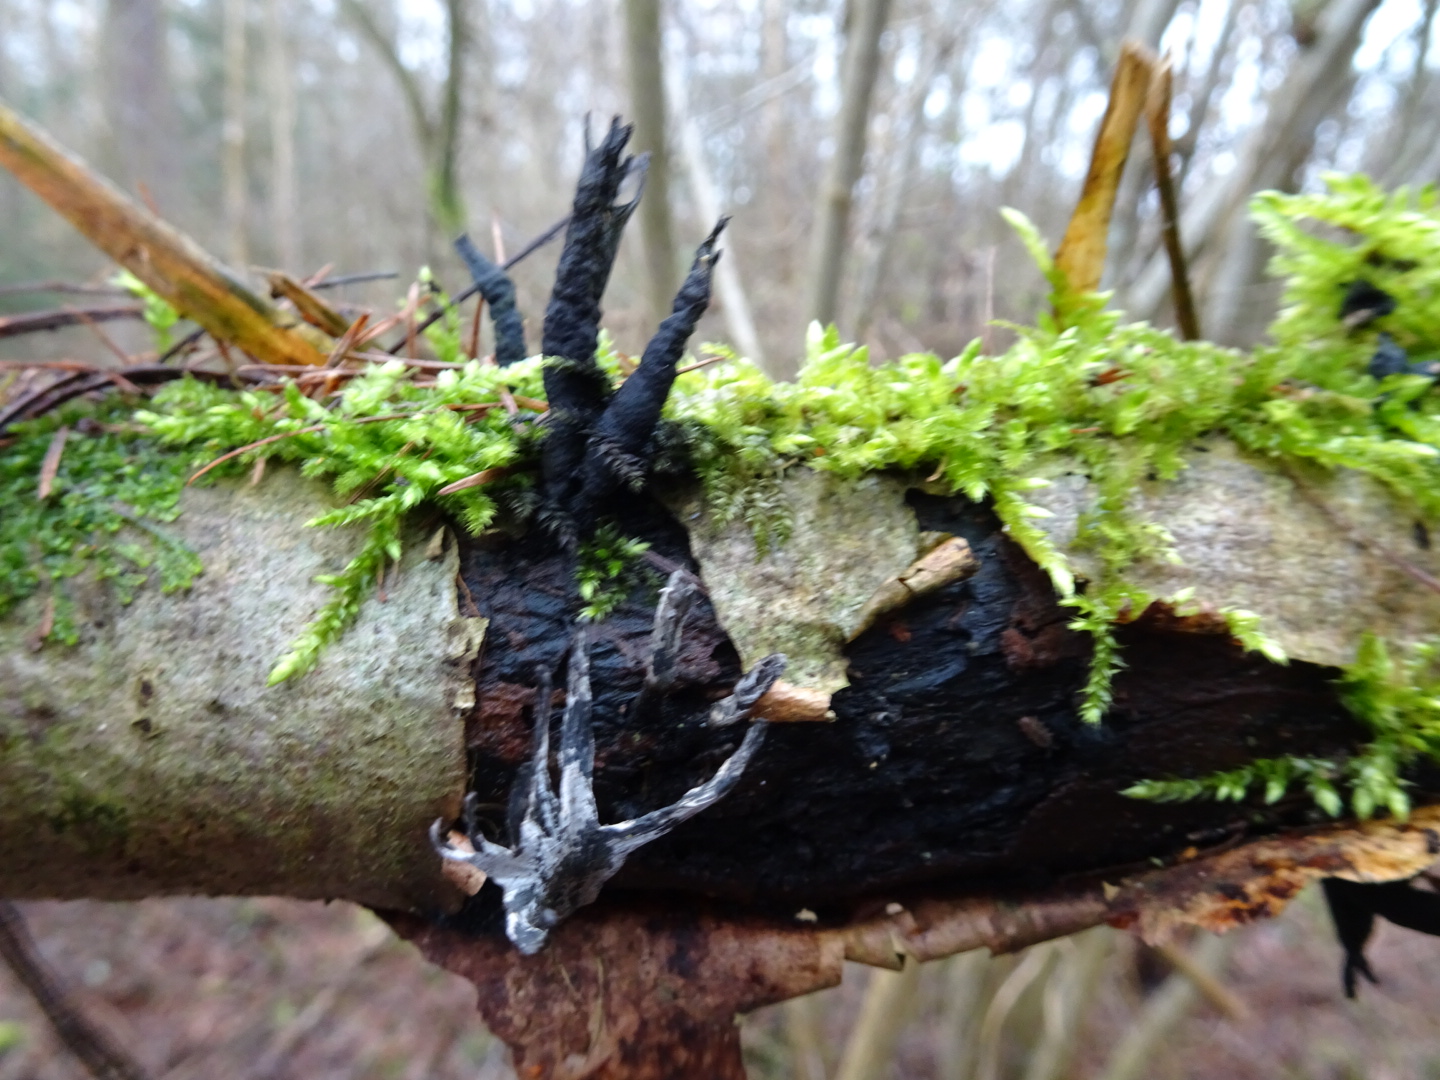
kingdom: Fungi
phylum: Ascomycota
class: Sordariomycetes
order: Xylariales
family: Xylariaceae
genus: Xylaria
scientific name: Xylaria hypoxylon
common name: grenet stødsvamp
